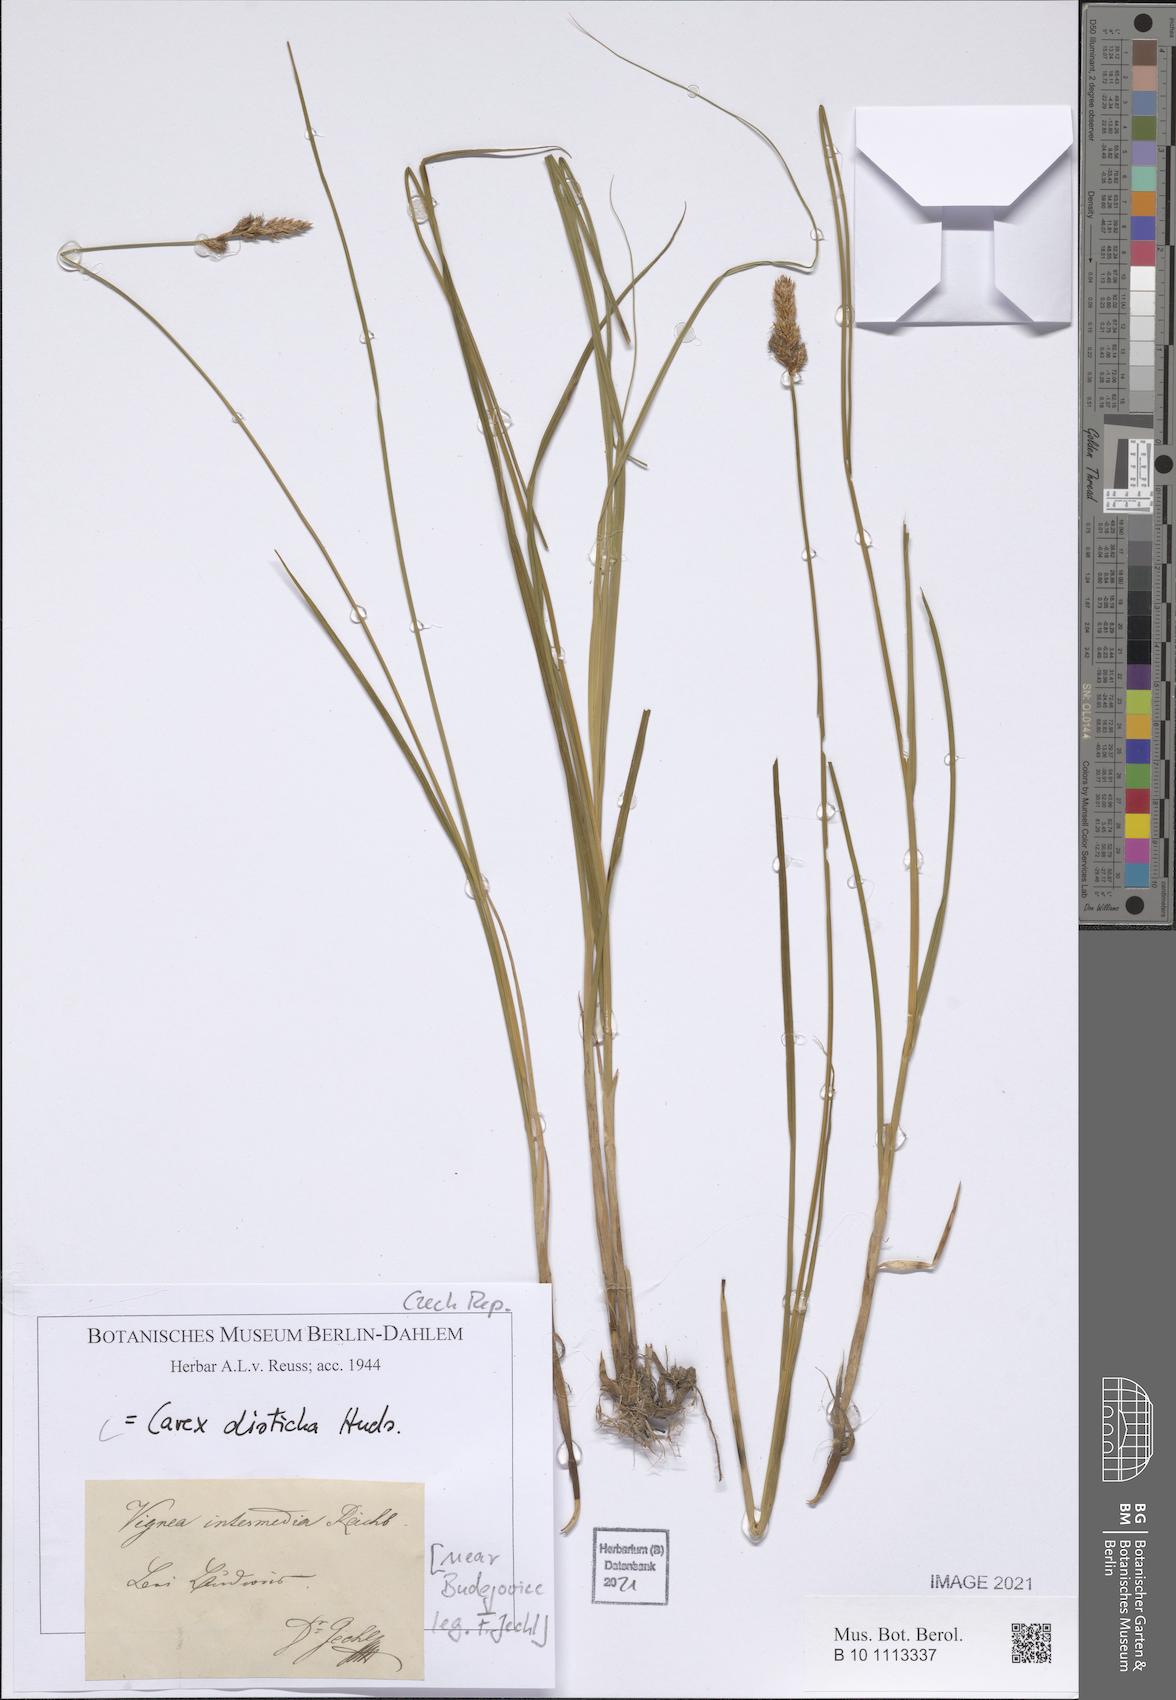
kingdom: Plantae
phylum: Tracheophyta
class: Liliopsida
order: Poales
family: Cyperaceae
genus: Carex
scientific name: Carex disticha
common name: Brown sedge
